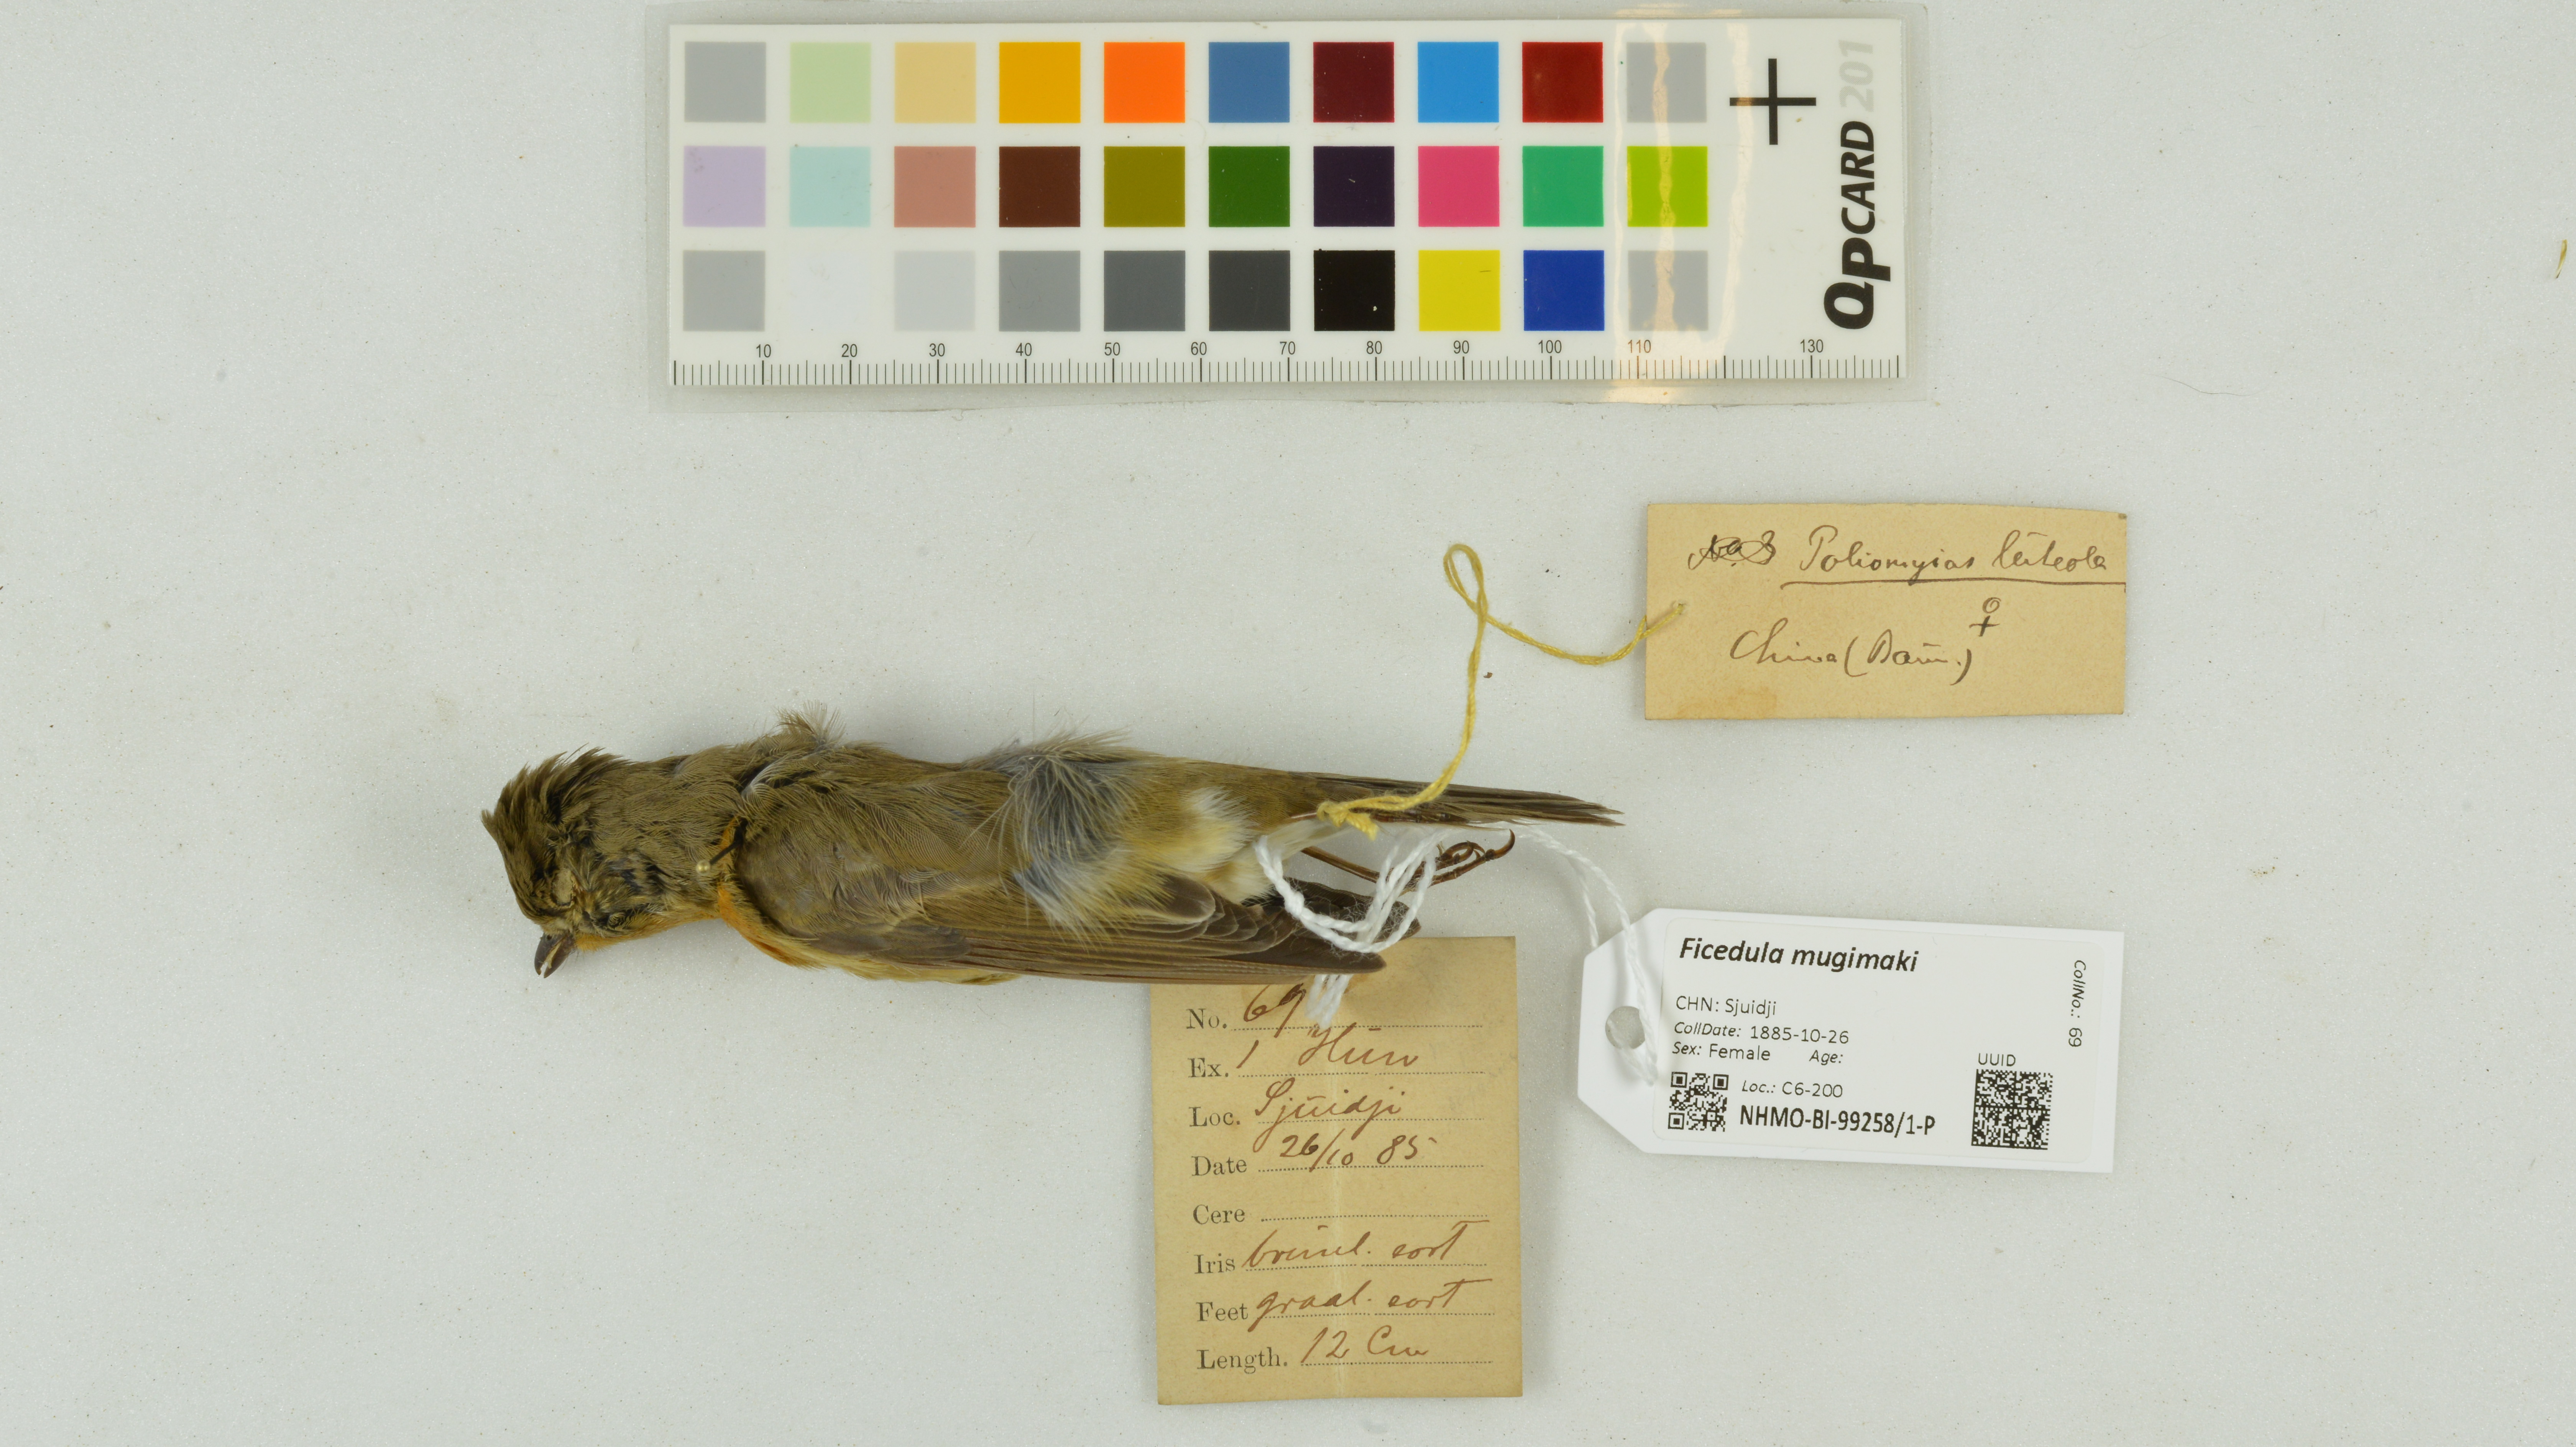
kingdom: Animalia
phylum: Chordata
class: Aves
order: Passeriformes
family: Muscicapidae
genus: Ficedula
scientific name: Ficedula mugimaki
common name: Mugimaki flycatcher
